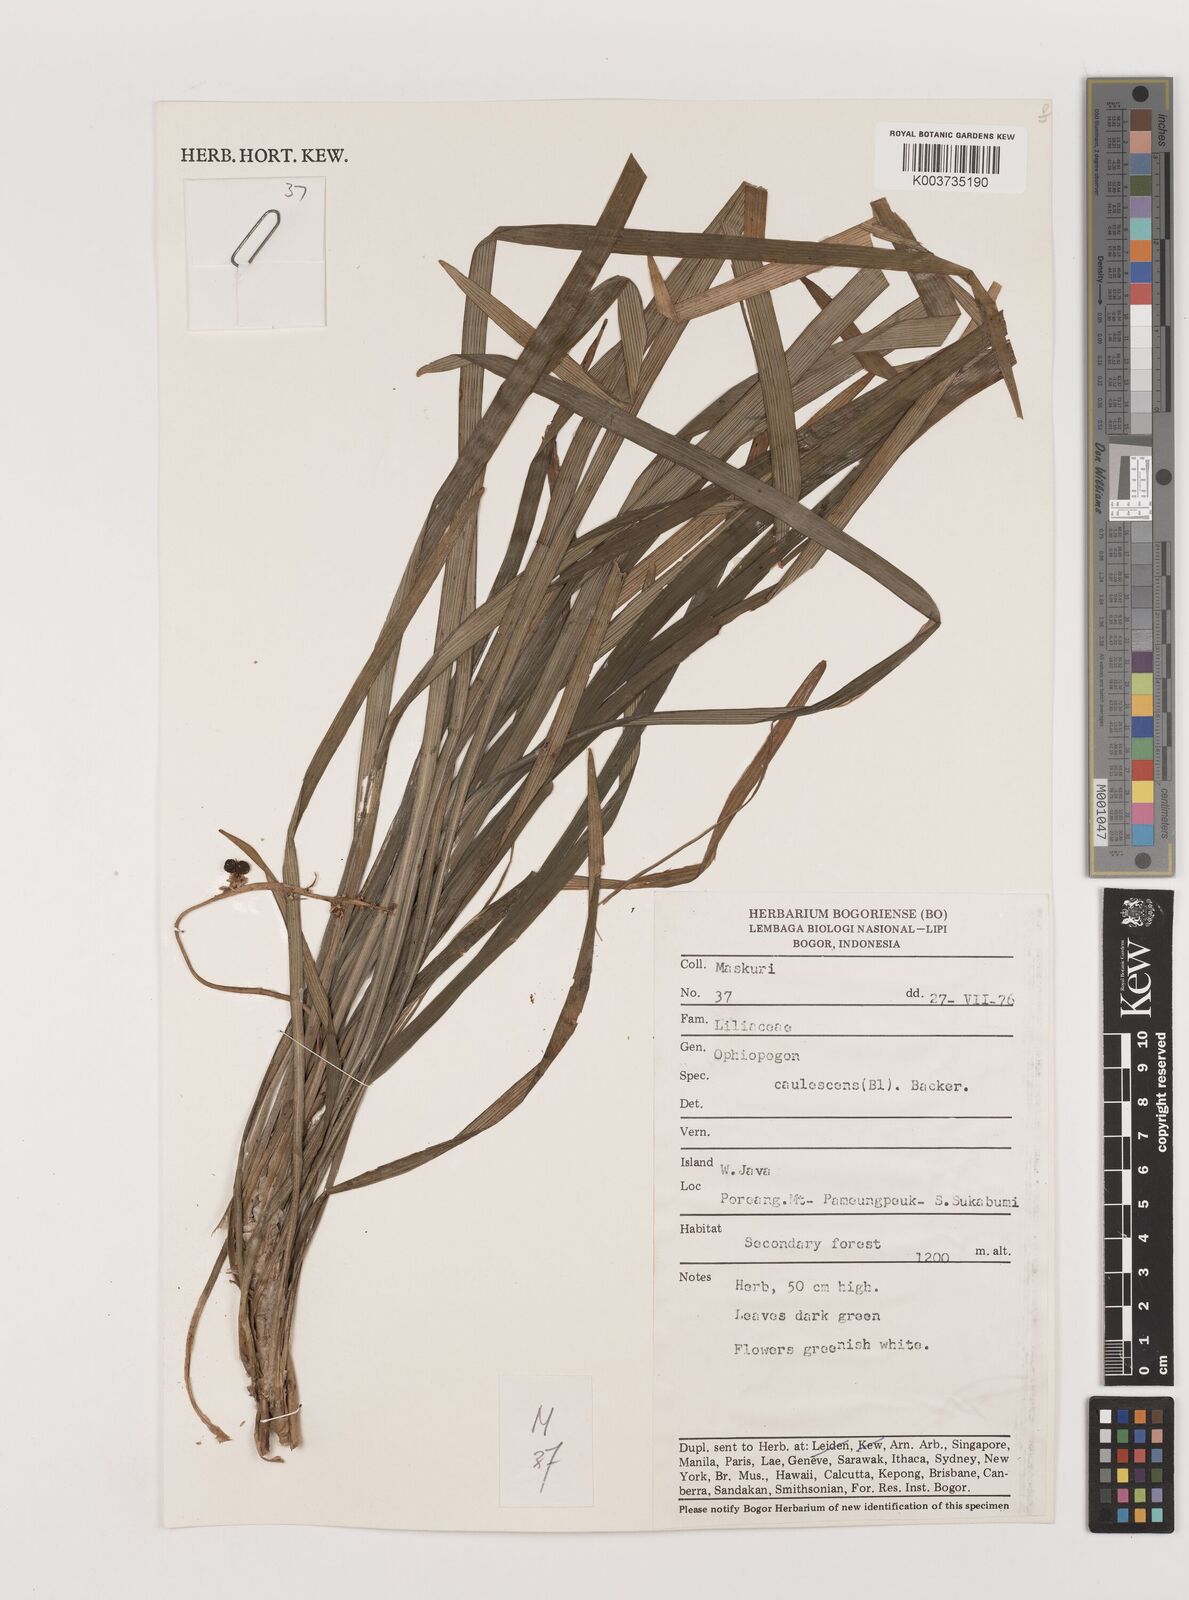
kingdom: Plantae
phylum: Tracheophyta
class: Liliopsida
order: Asparagales
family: Asparagaceae
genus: Ophiopogon
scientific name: Ophiopogon caulescens
